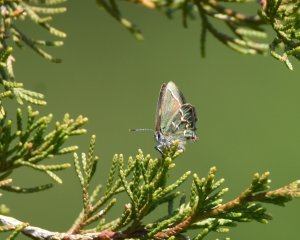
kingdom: Animalia
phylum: Arthropoda
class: Insecta
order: Lepidoptera
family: Lycaenidae
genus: Mitoura
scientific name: Mitoura gryneus
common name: Juniper Hairstreak
